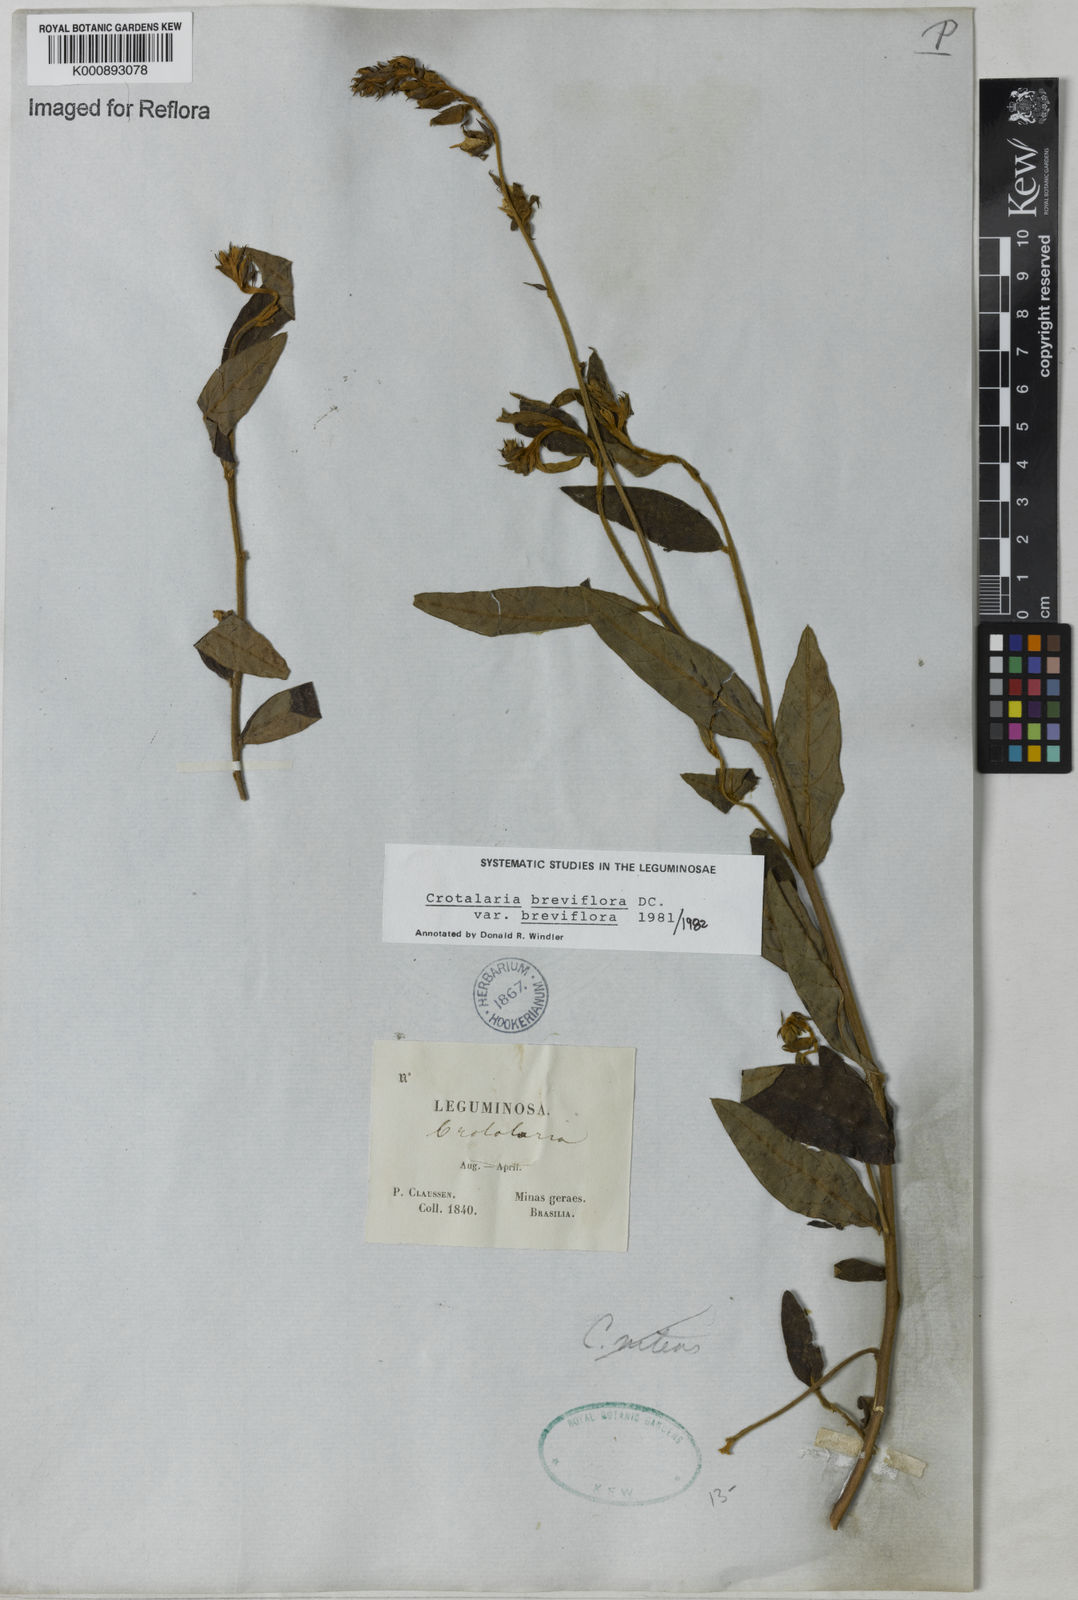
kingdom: Plantae
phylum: Tracheophyta
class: Magnoliopsida
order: Fabales
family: Fabaceae
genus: Crotalaria
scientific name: Crotalaria breviflora
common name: Short-flower crotalaria
